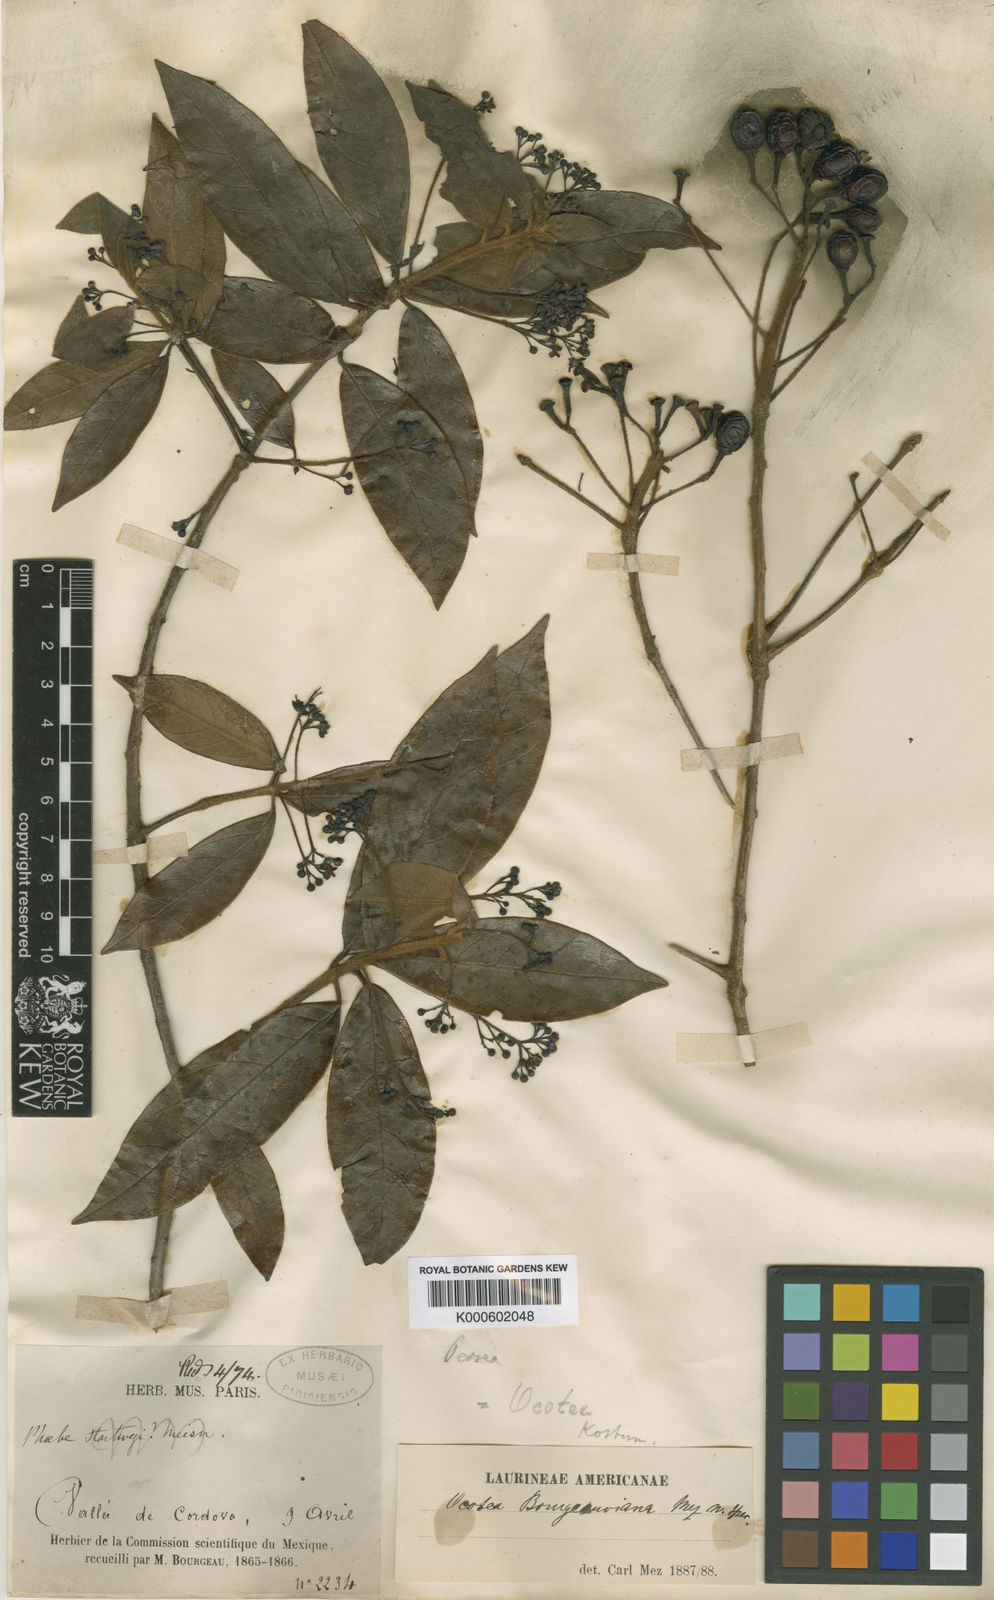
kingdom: Plantae
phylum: Tracheophyta
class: Magnoliopsida
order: Laurales
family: Lauraceae
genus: Ocotea
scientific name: Ocotea bourgeauviana
